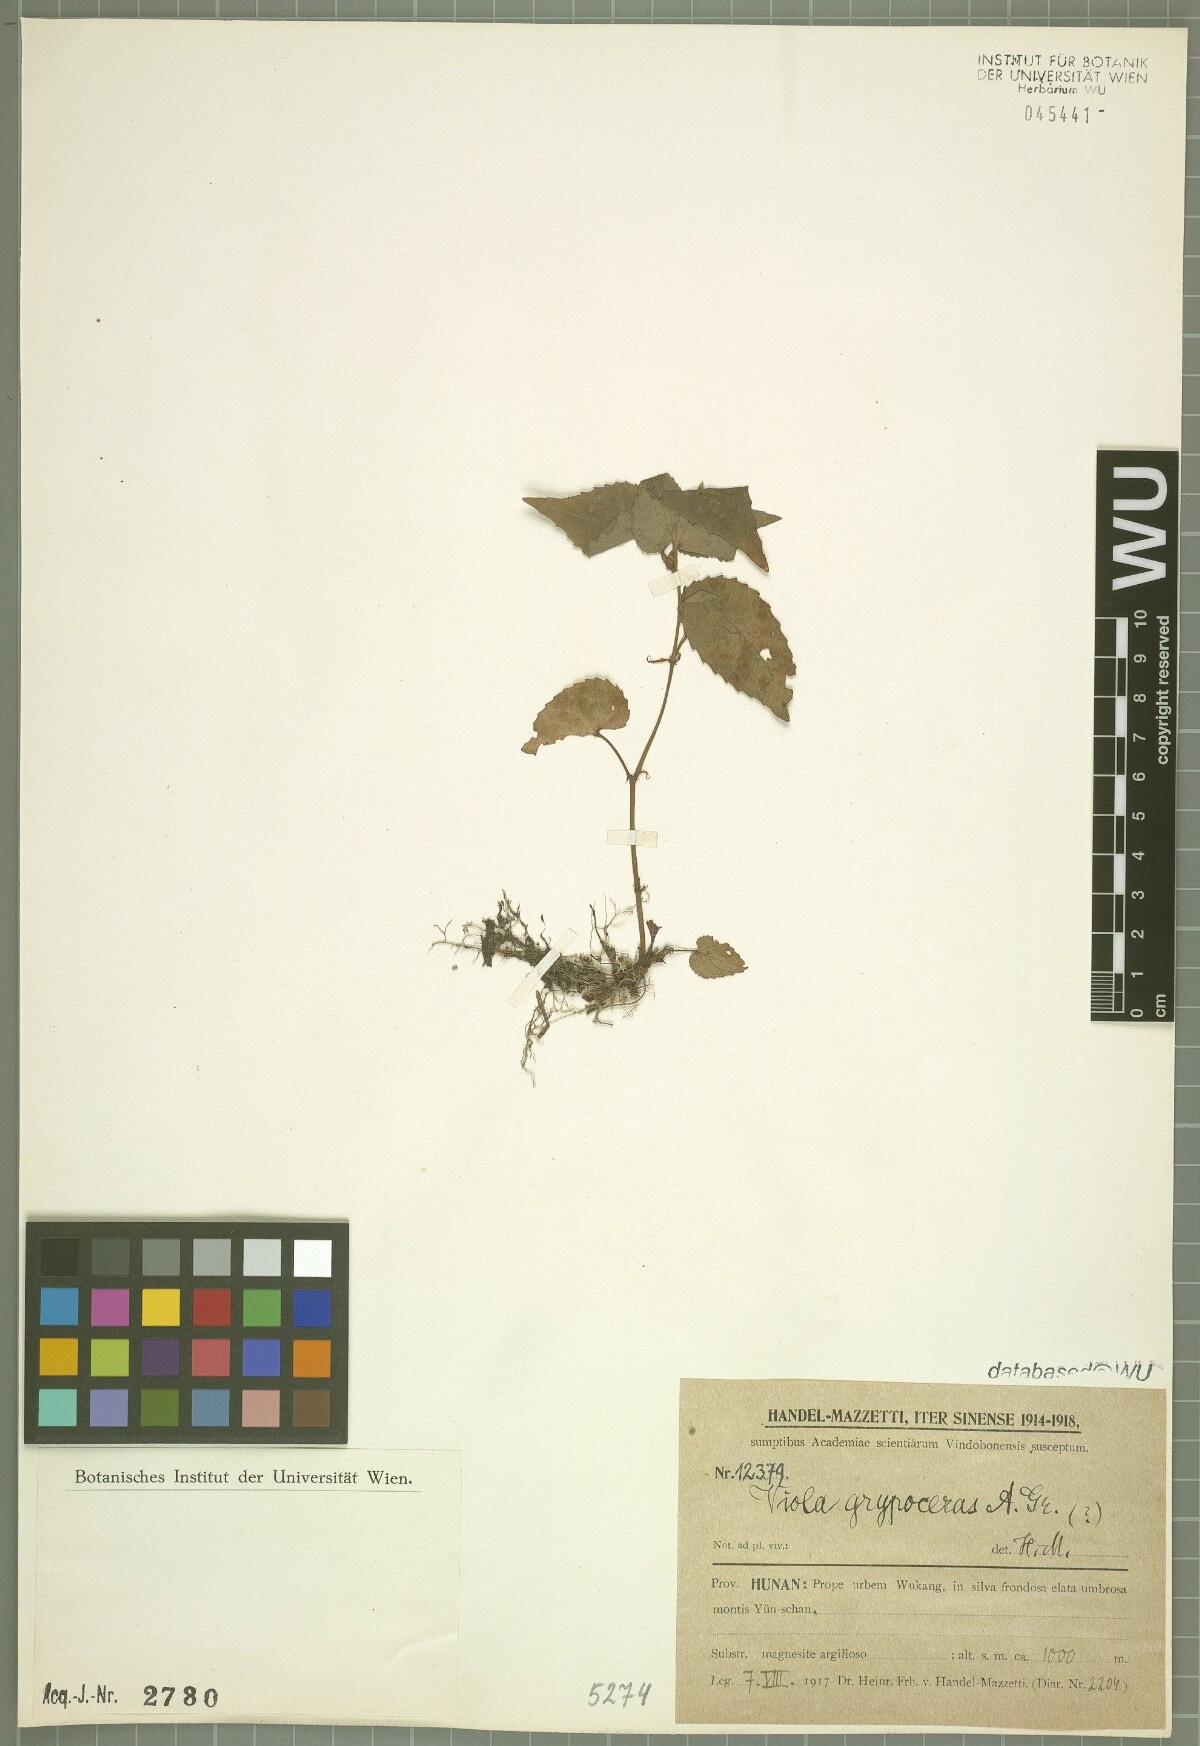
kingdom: Plantae
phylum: Tracheophyta
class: Magnoliopsida
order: Malpighiales
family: Violaceae
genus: Viola
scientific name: Viola grypoceras
